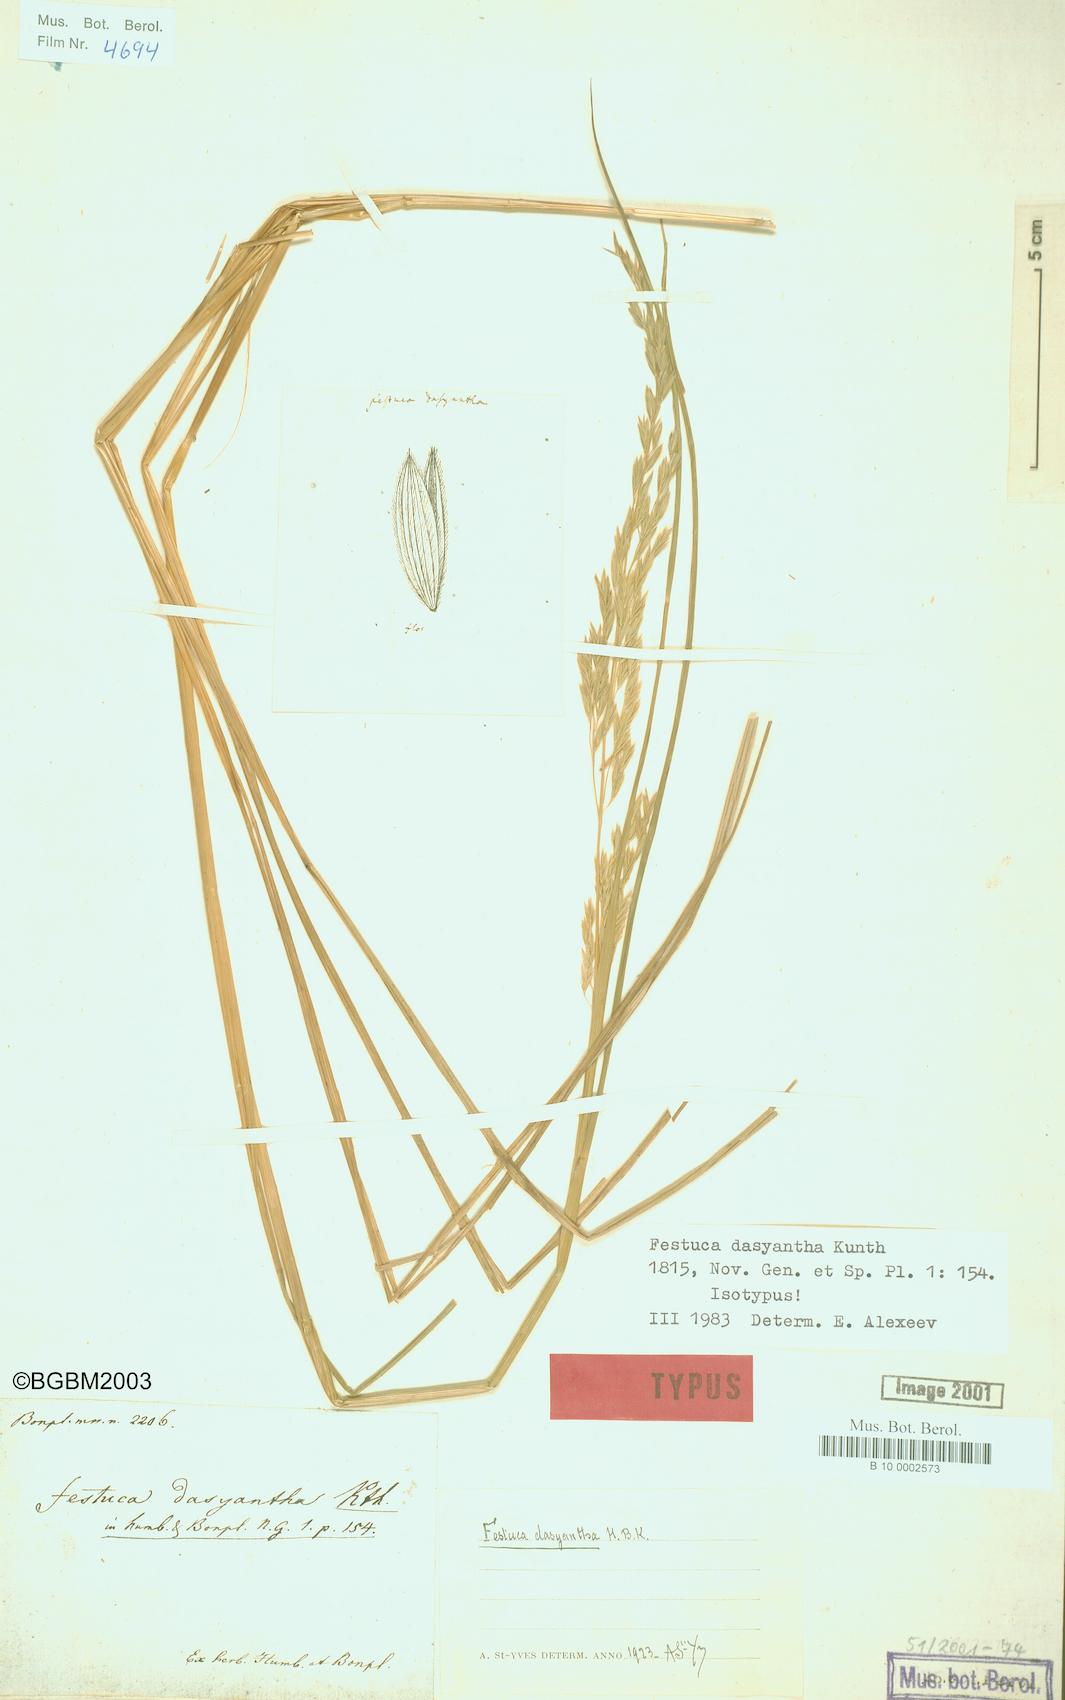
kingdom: Plantae
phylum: Tracheophyta
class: Liliopsida
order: Poales
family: Poaceae
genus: Festuca
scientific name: Festuca dasyantha
